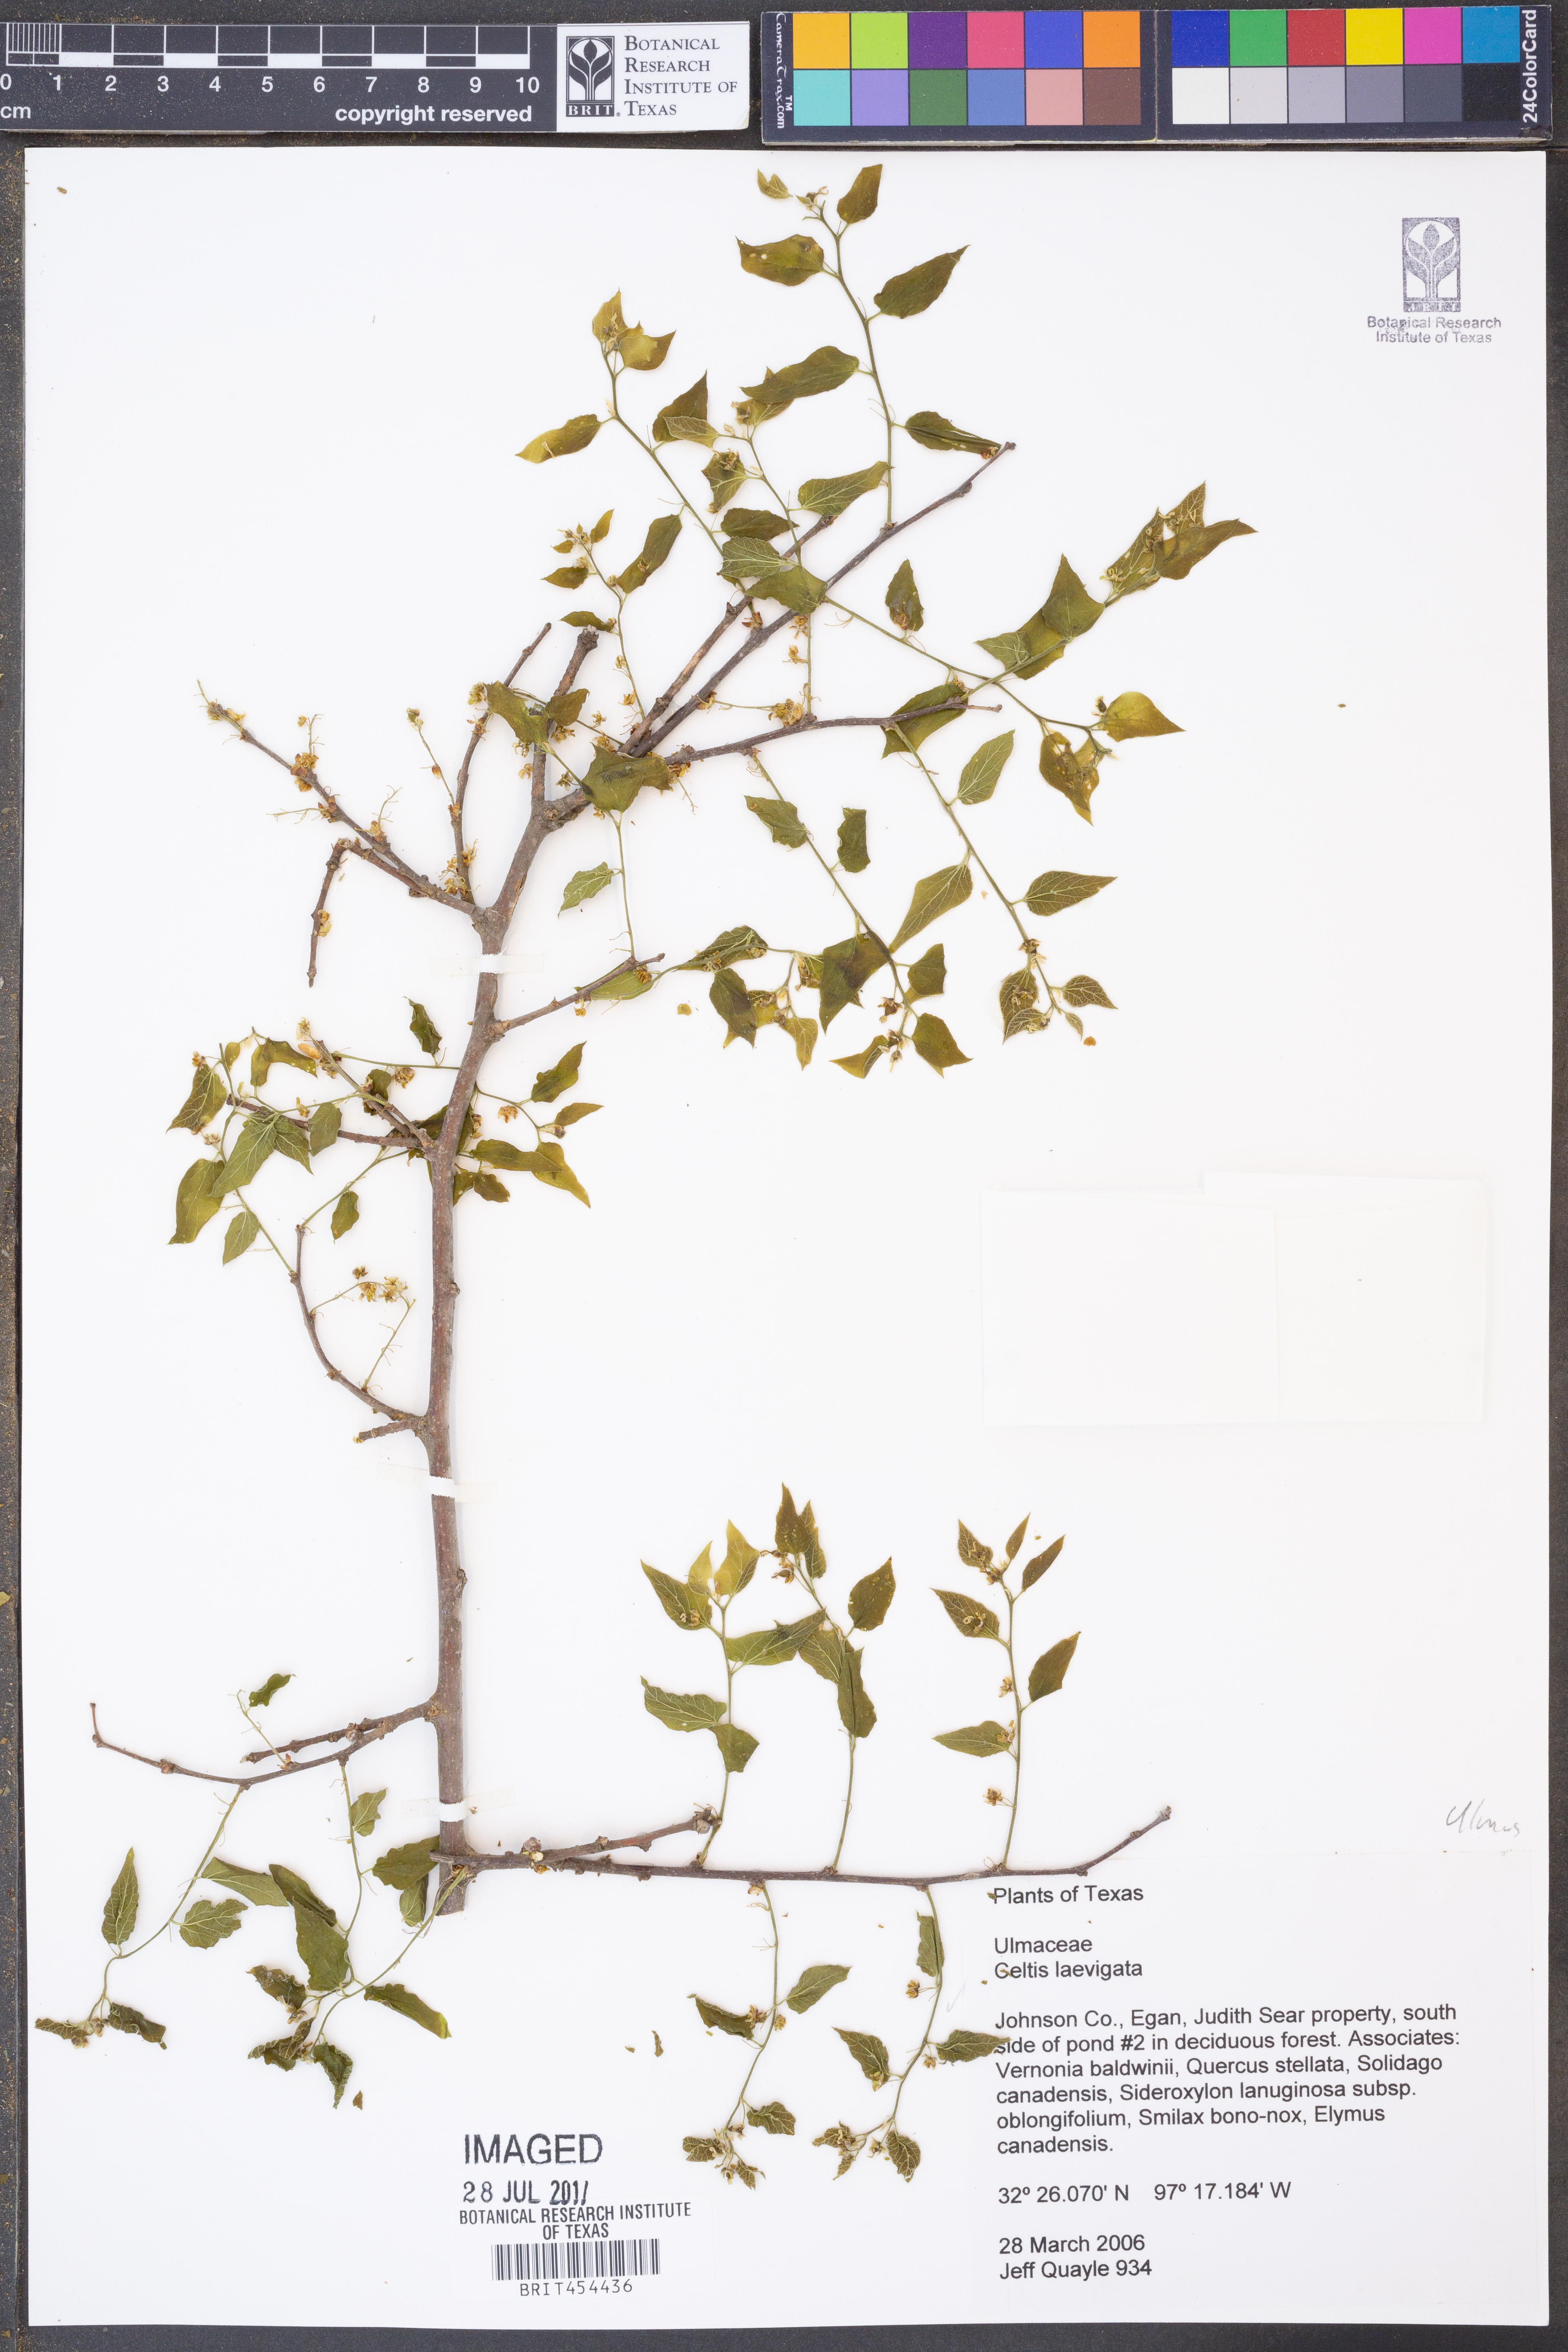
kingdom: Plantae
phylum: Tracheophyta
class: Magnoliopsida
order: Rosales
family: Cannabaceae
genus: Celtis
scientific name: Celtis laevigata
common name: Sugarberry
